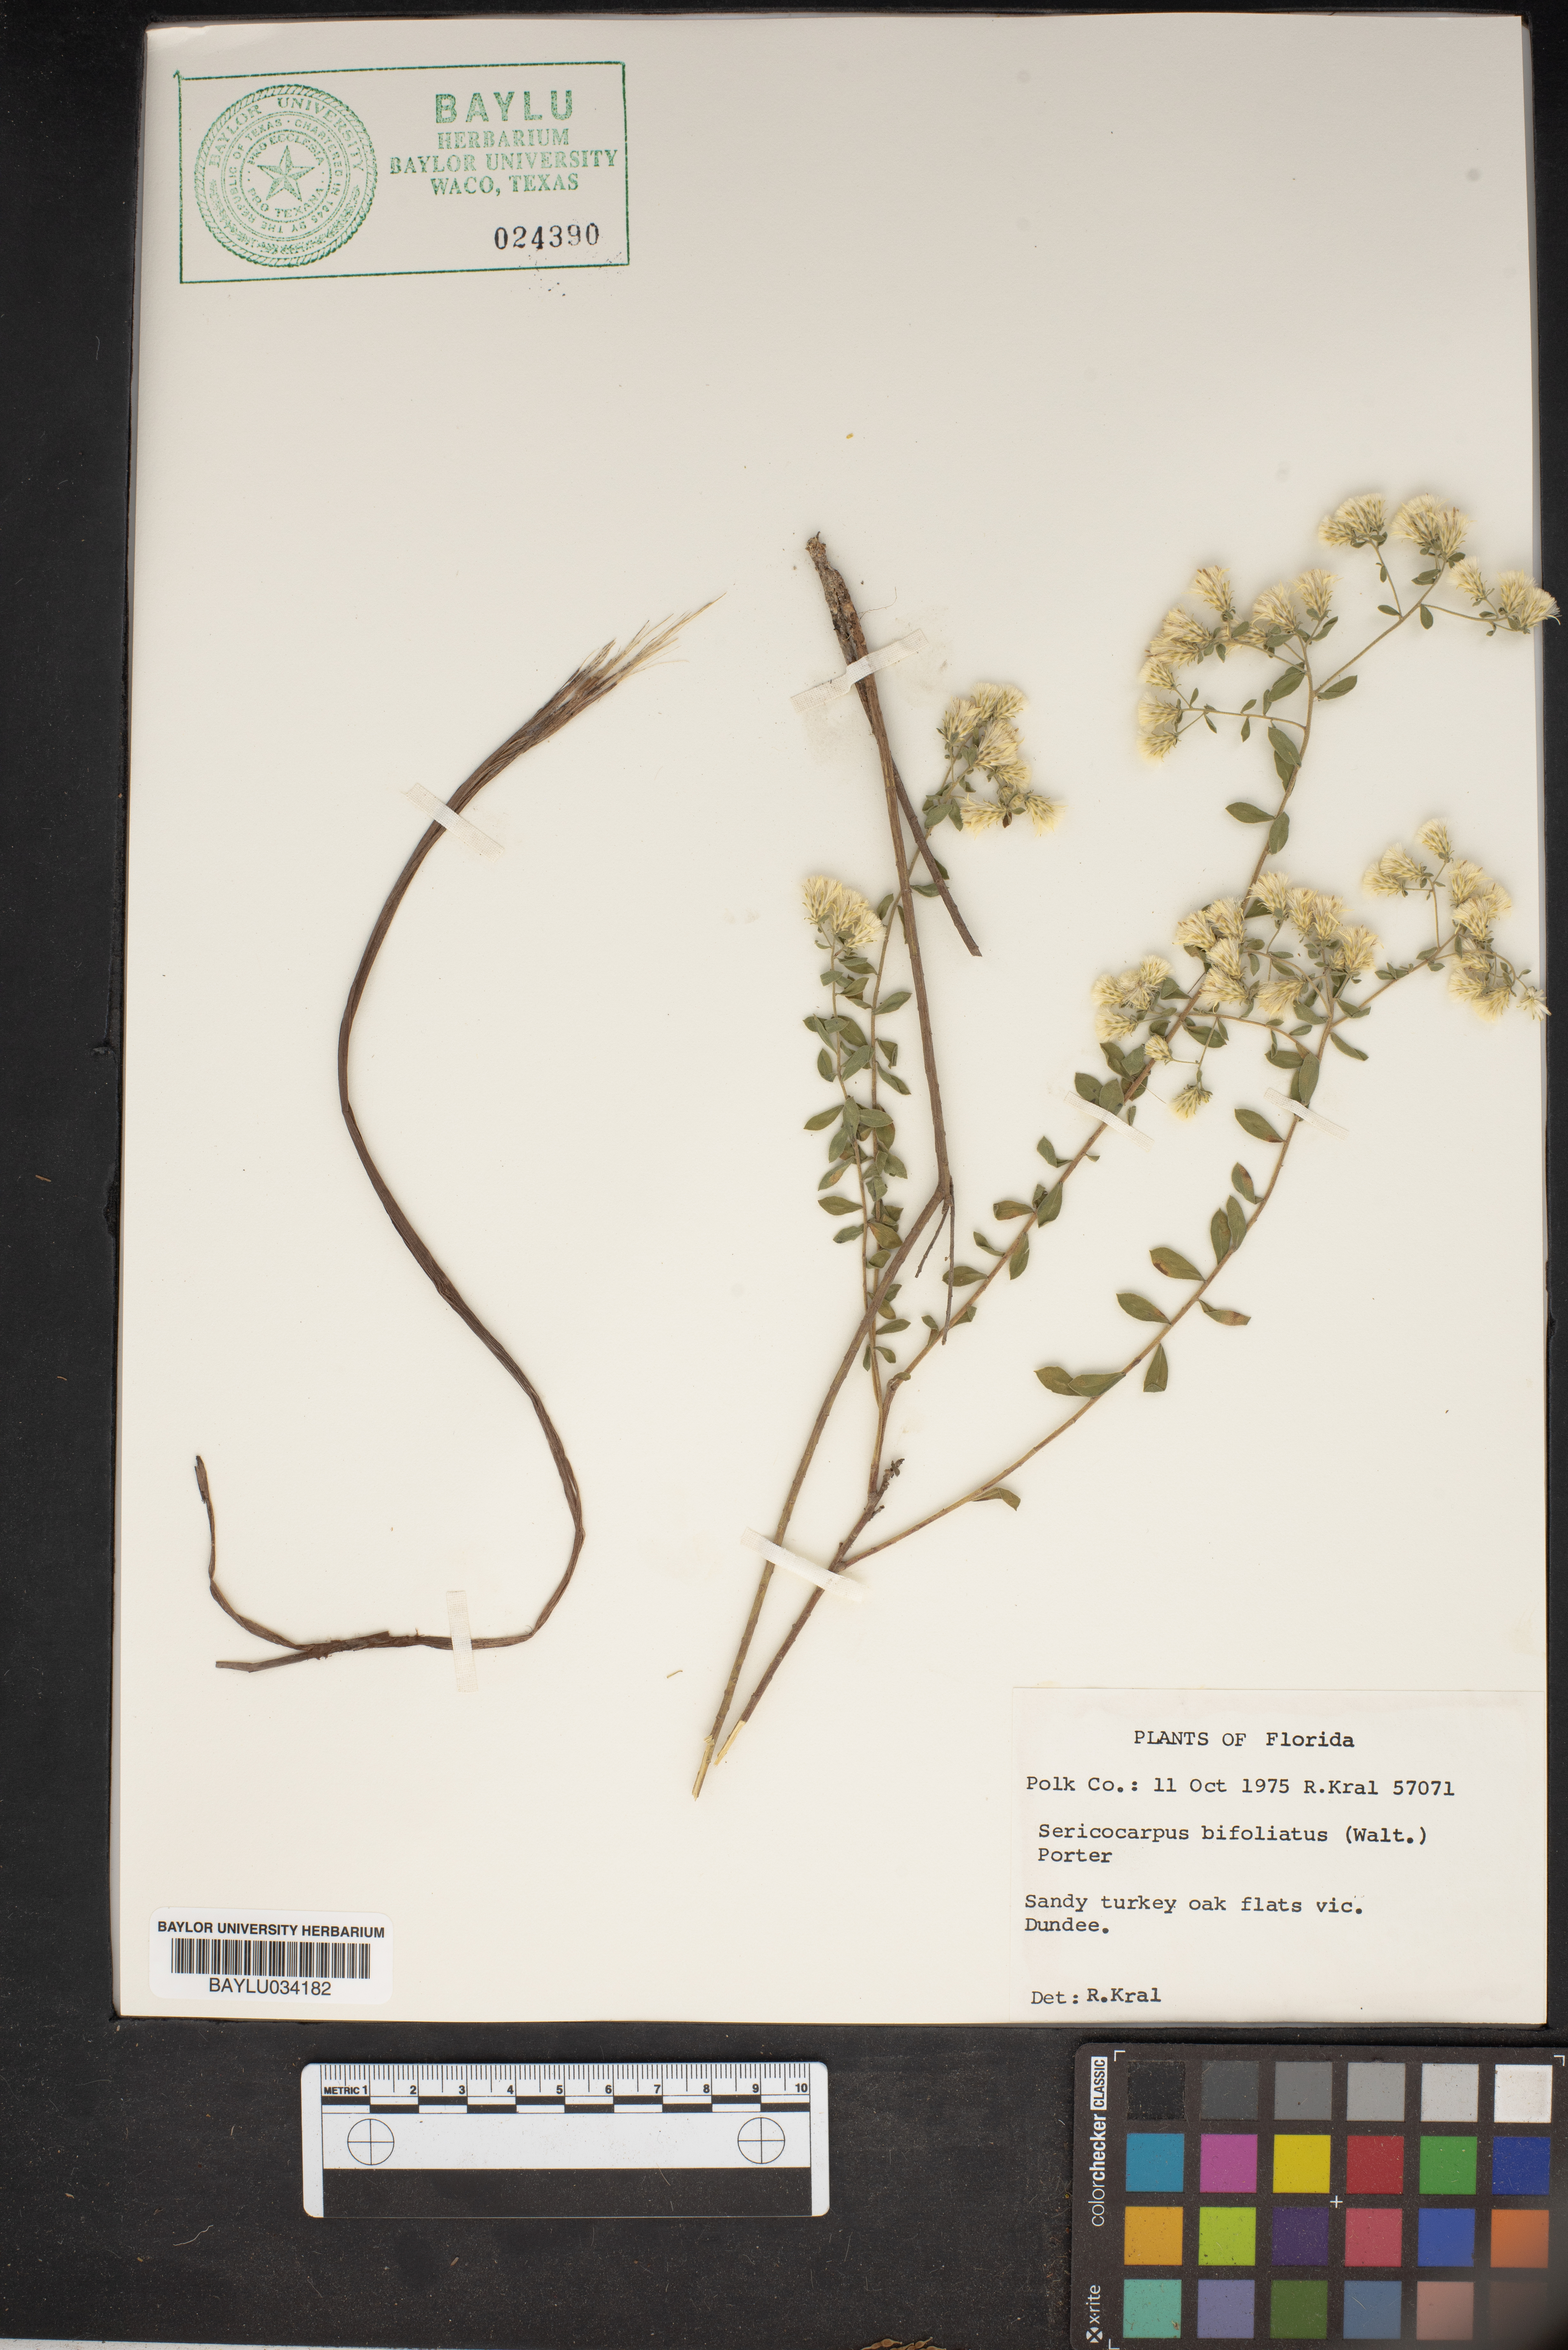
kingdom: Plantae
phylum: Tracheophyta
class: Magnoliopsida
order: Asterales
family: Asteraceae
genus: Sericocarpus
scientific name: Sericocarpus tortifolius
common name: Dixie aster
